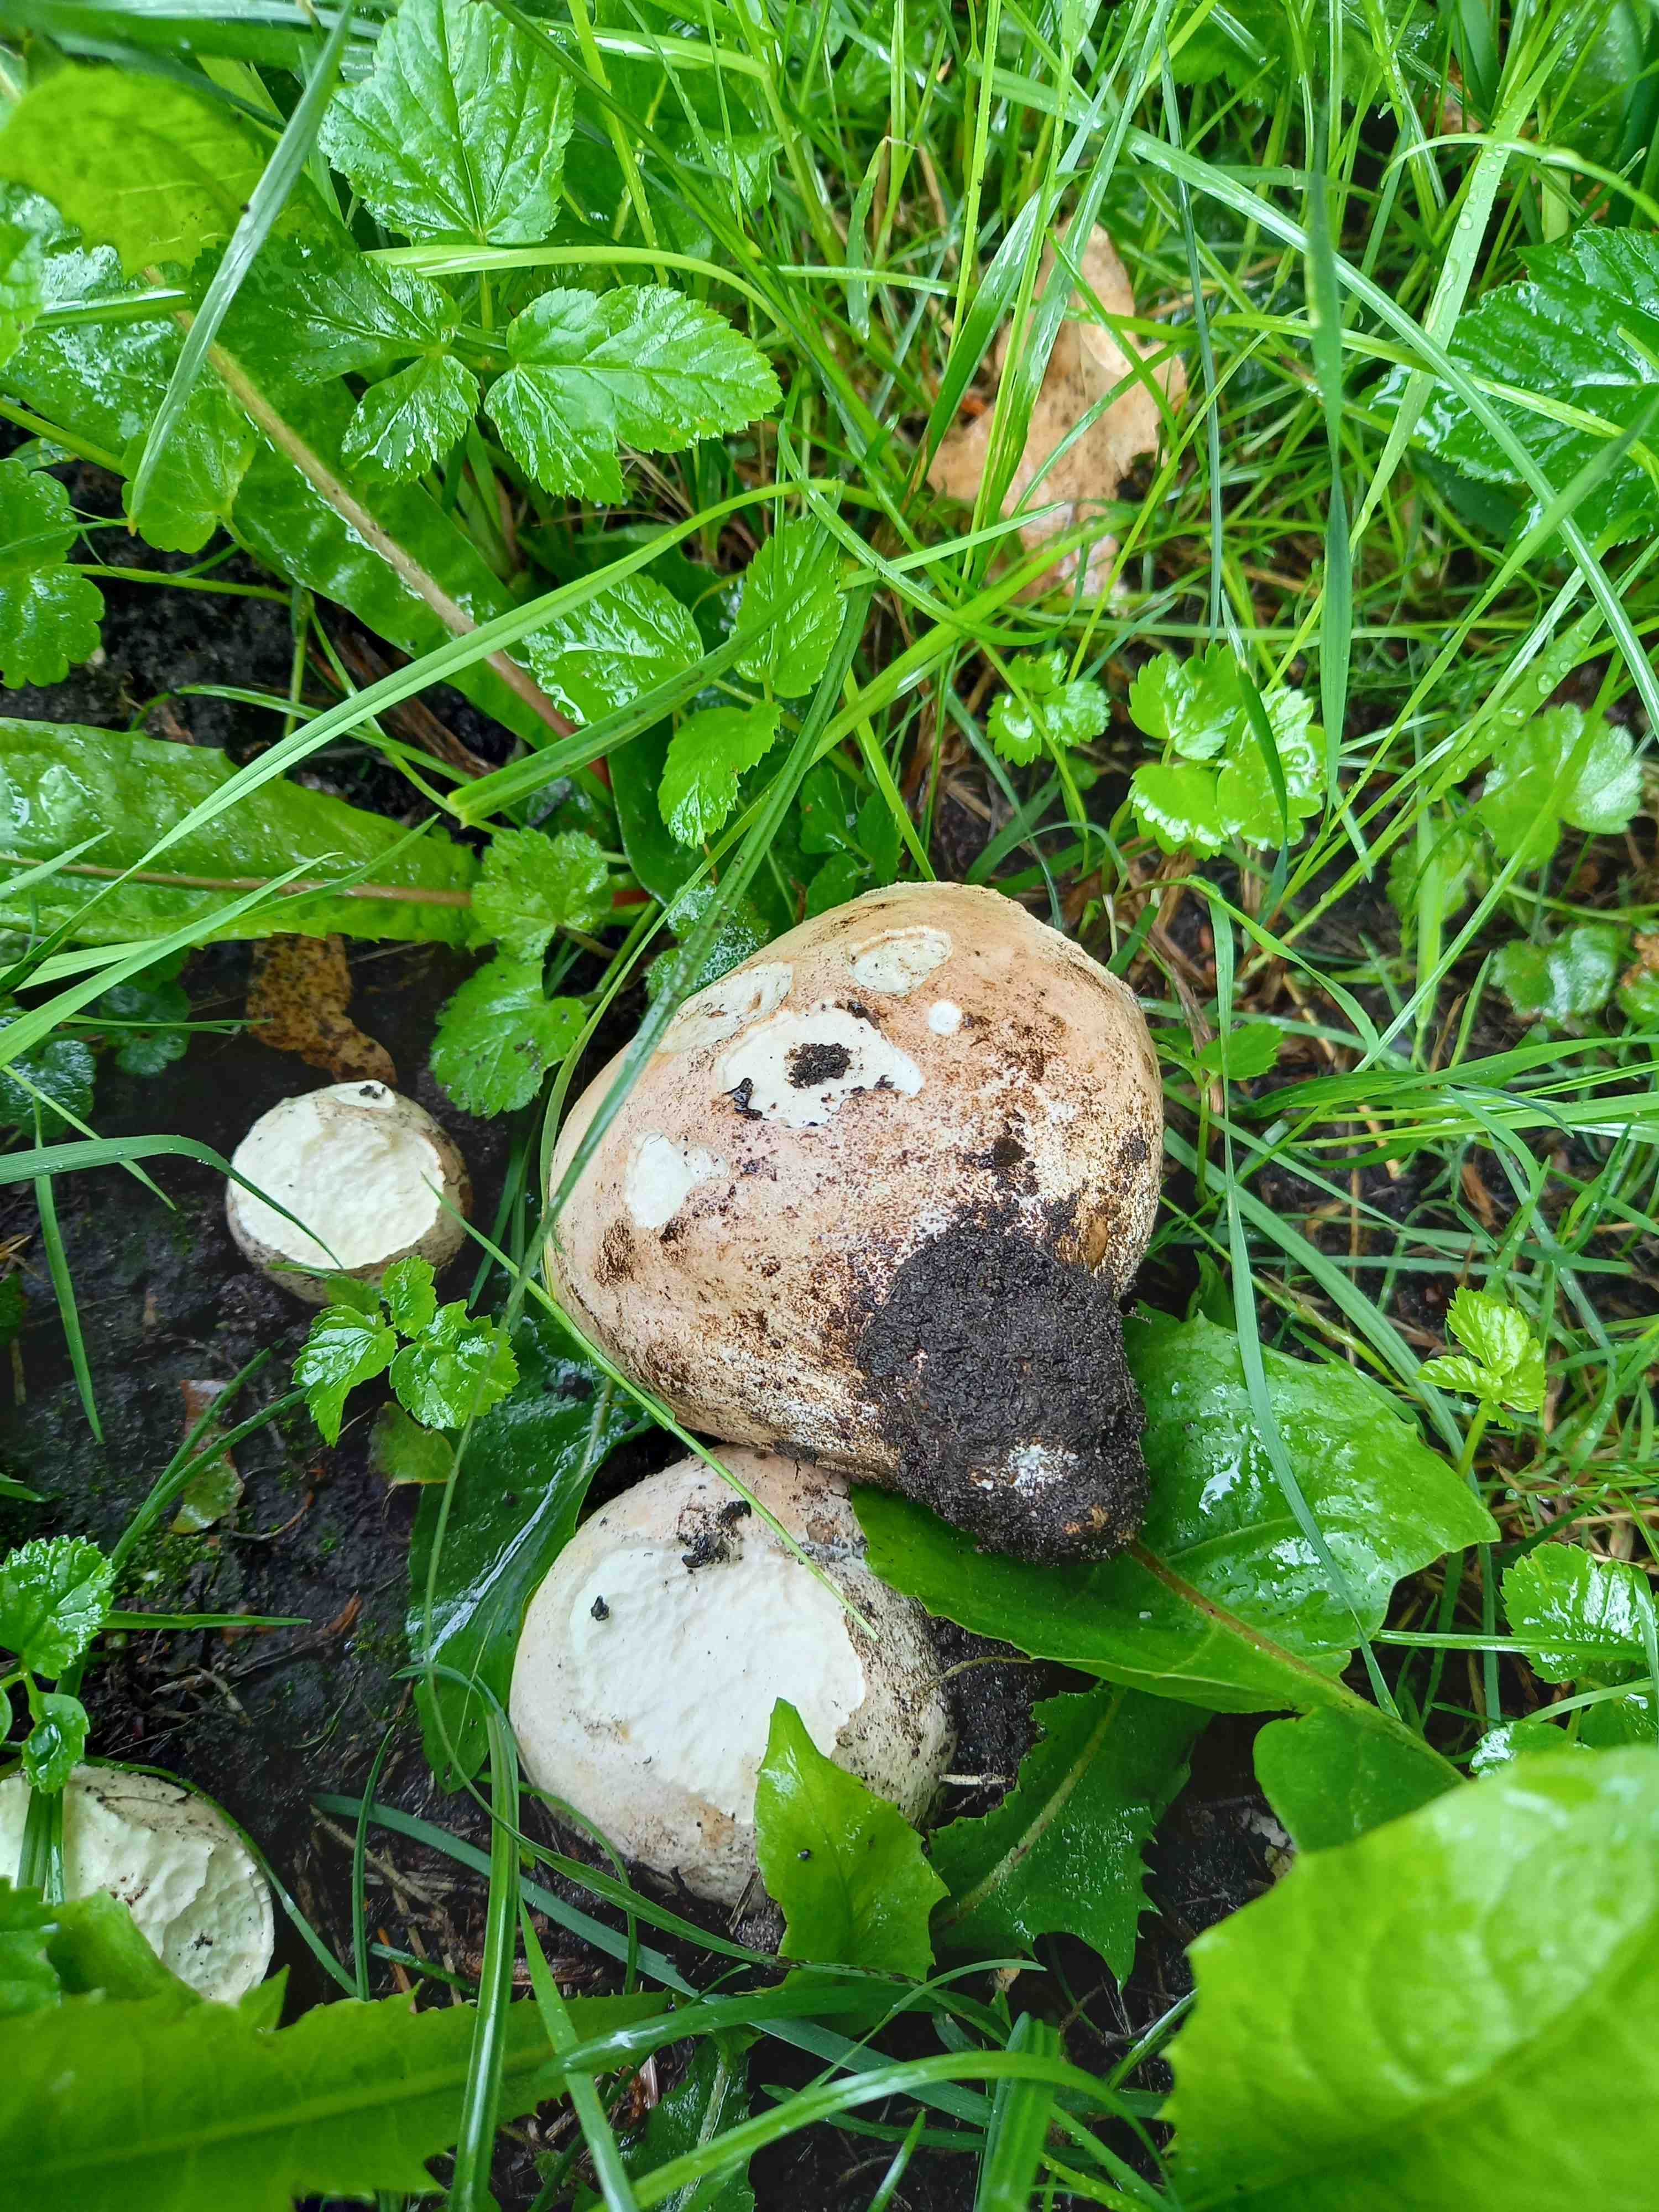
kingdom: Fungi
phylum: Basidiomycota
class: Agaricomycetes
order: Agaricales
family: Lycoperdaceae
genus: Calvatia
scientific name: Calvatia gigantea
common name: kæmpestøvbold
